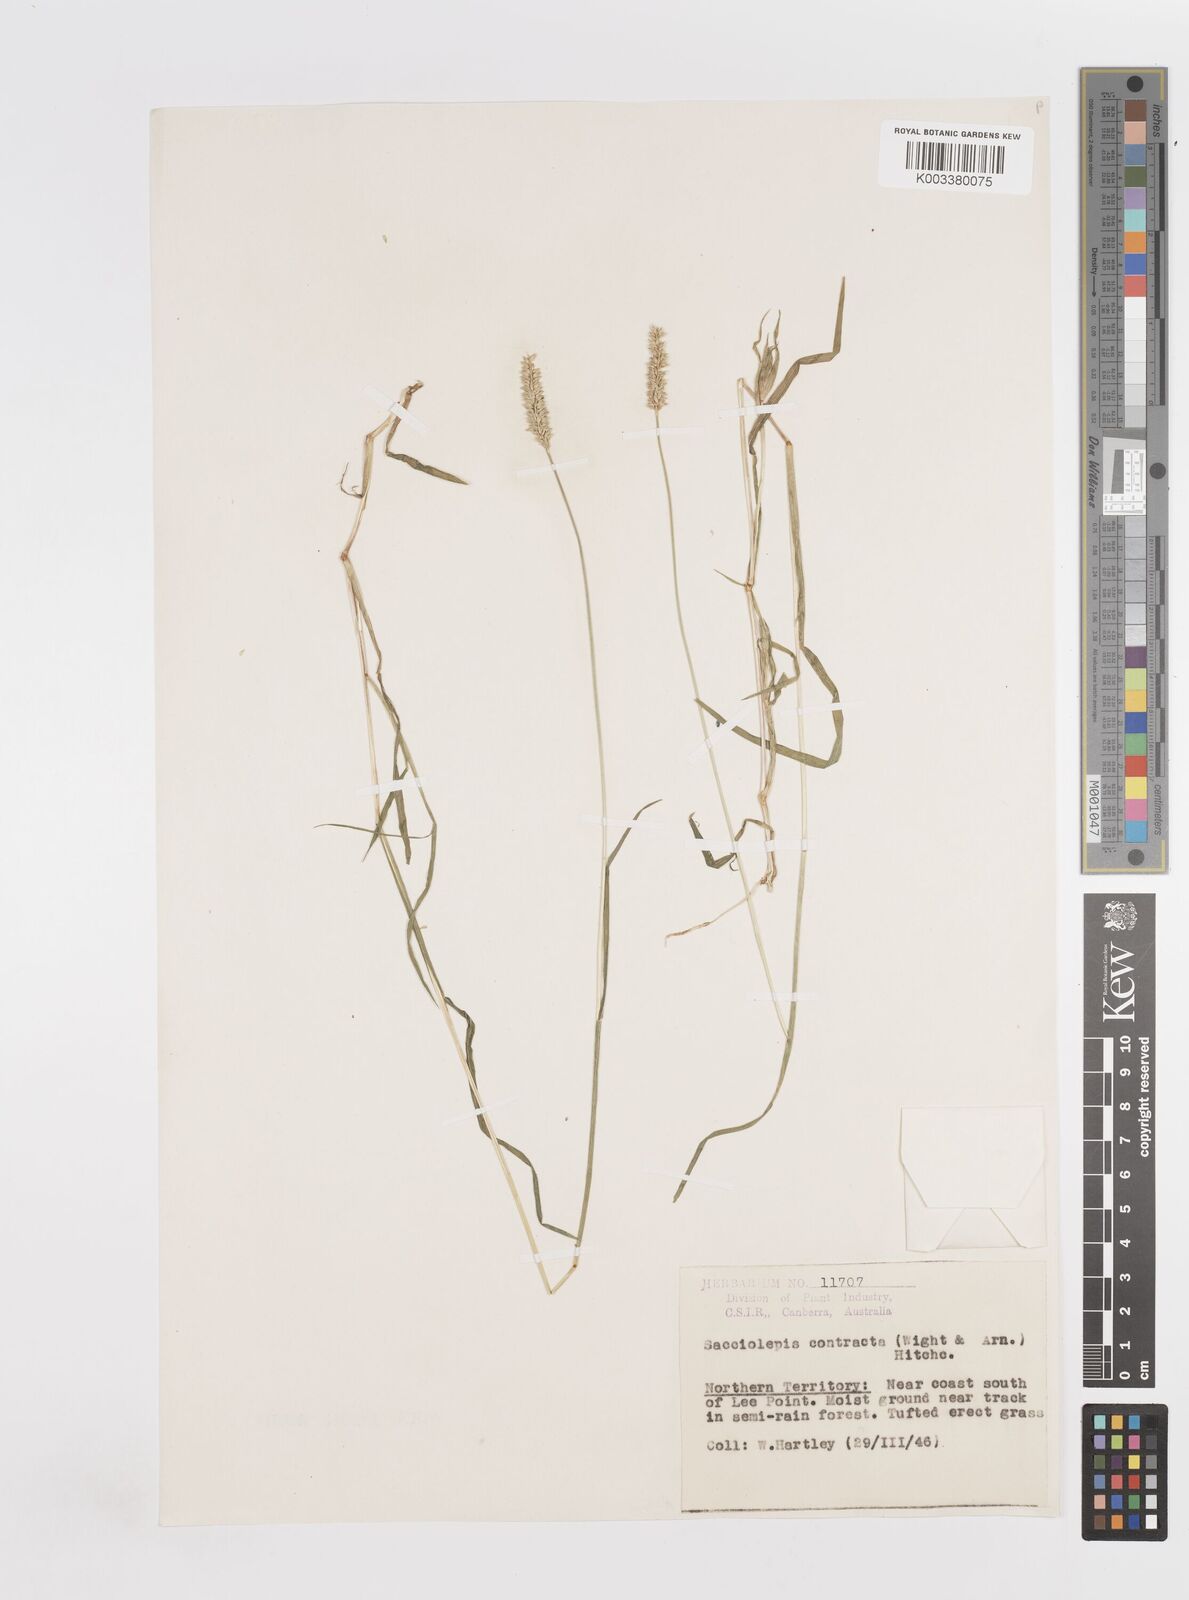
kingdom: Plantae
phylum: Tracheophyta
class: Liliopsida
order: Poales
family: Poaceae
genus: Sacciolepis
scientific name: Sacciolepis indica
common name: Glenwoodgrass
